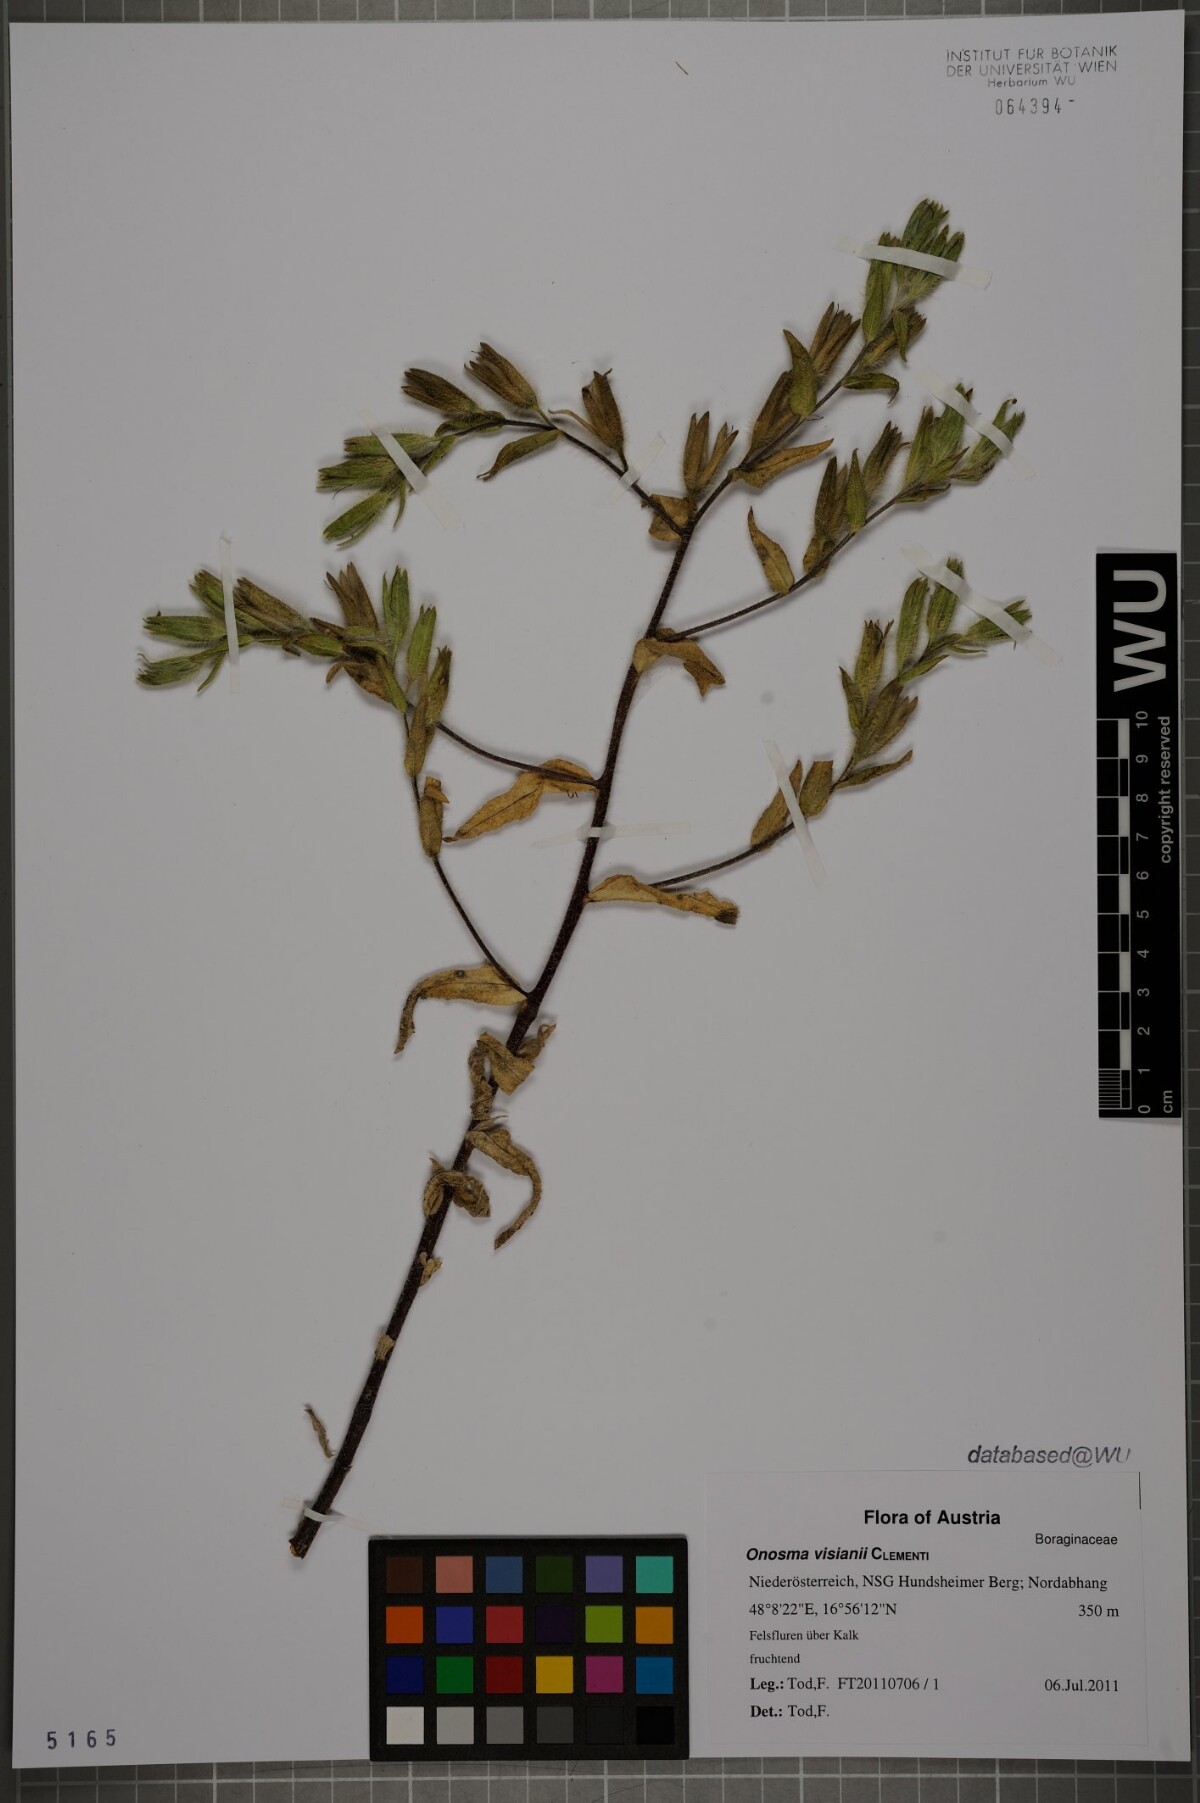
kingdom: Plantae
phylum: Tracheophyta
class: Magnoliopsida
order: Boraginales
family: Boraginaceae
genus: Onosma
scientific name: Onosma visianii
